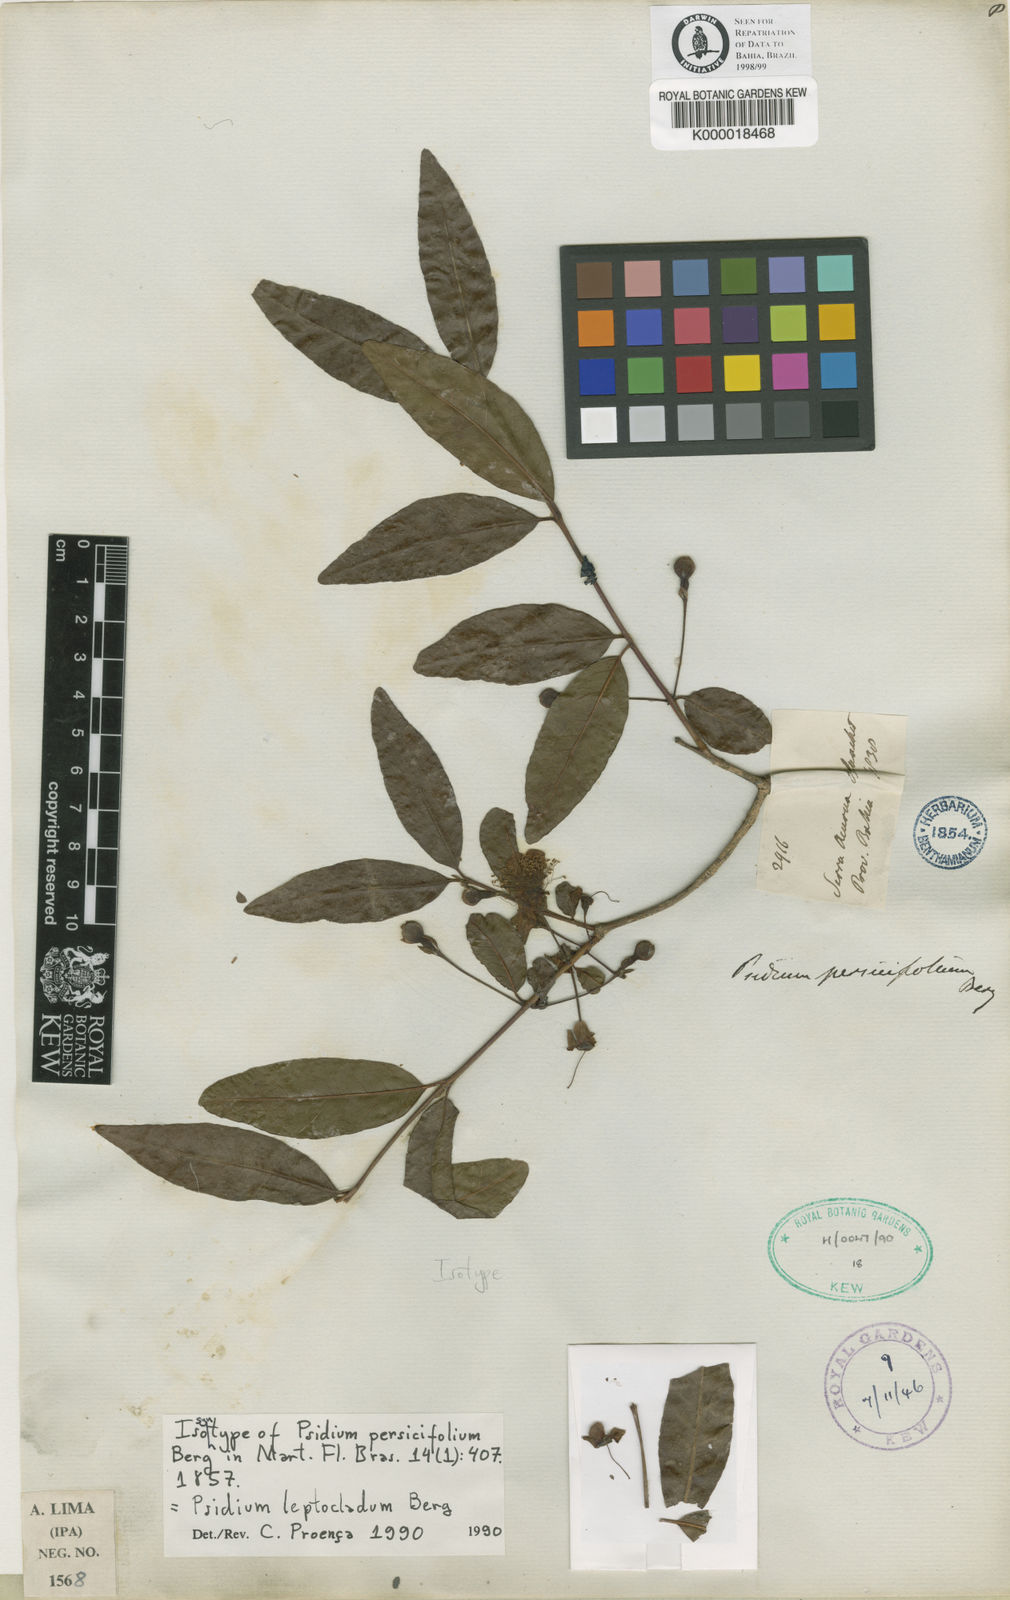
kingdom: Plantae
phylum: Tracheophyta
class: Magnoliopsida
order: Myrtales
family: Myrtaceae
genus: Psidium
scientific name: Psidium striatulum
